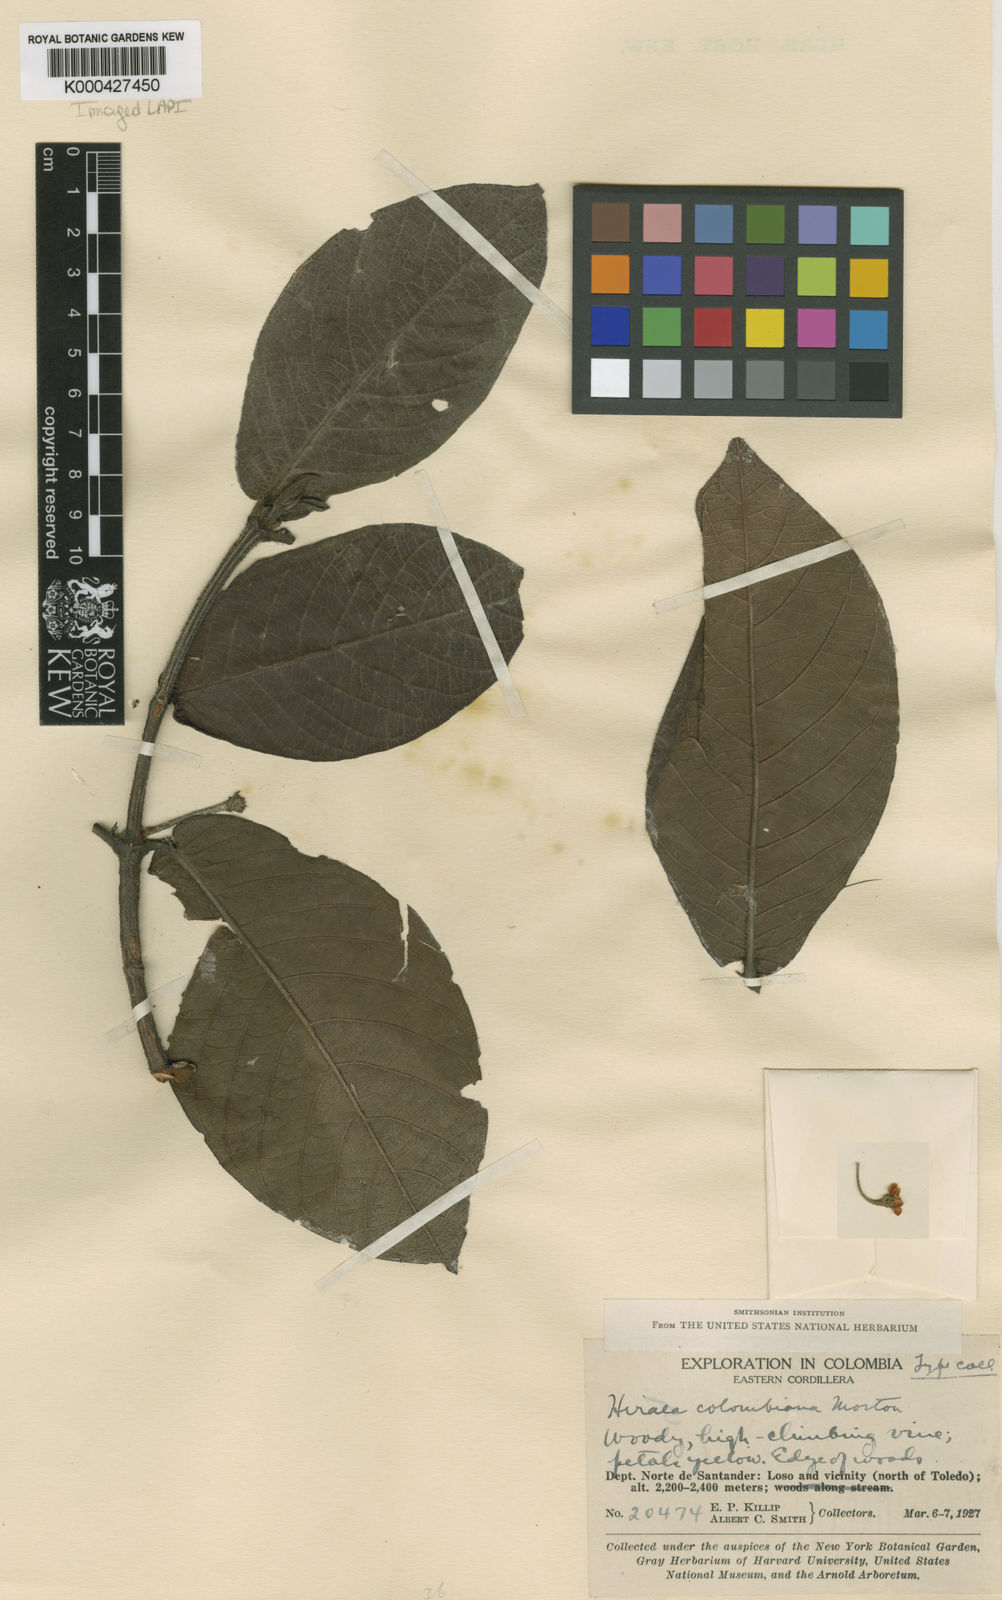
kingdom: Plantae
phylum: Tracheophyta
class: Magnoliopsida
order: Malpighiales
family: Malpighiaceae
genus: Hiraea
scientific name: Hiraea colombiana
